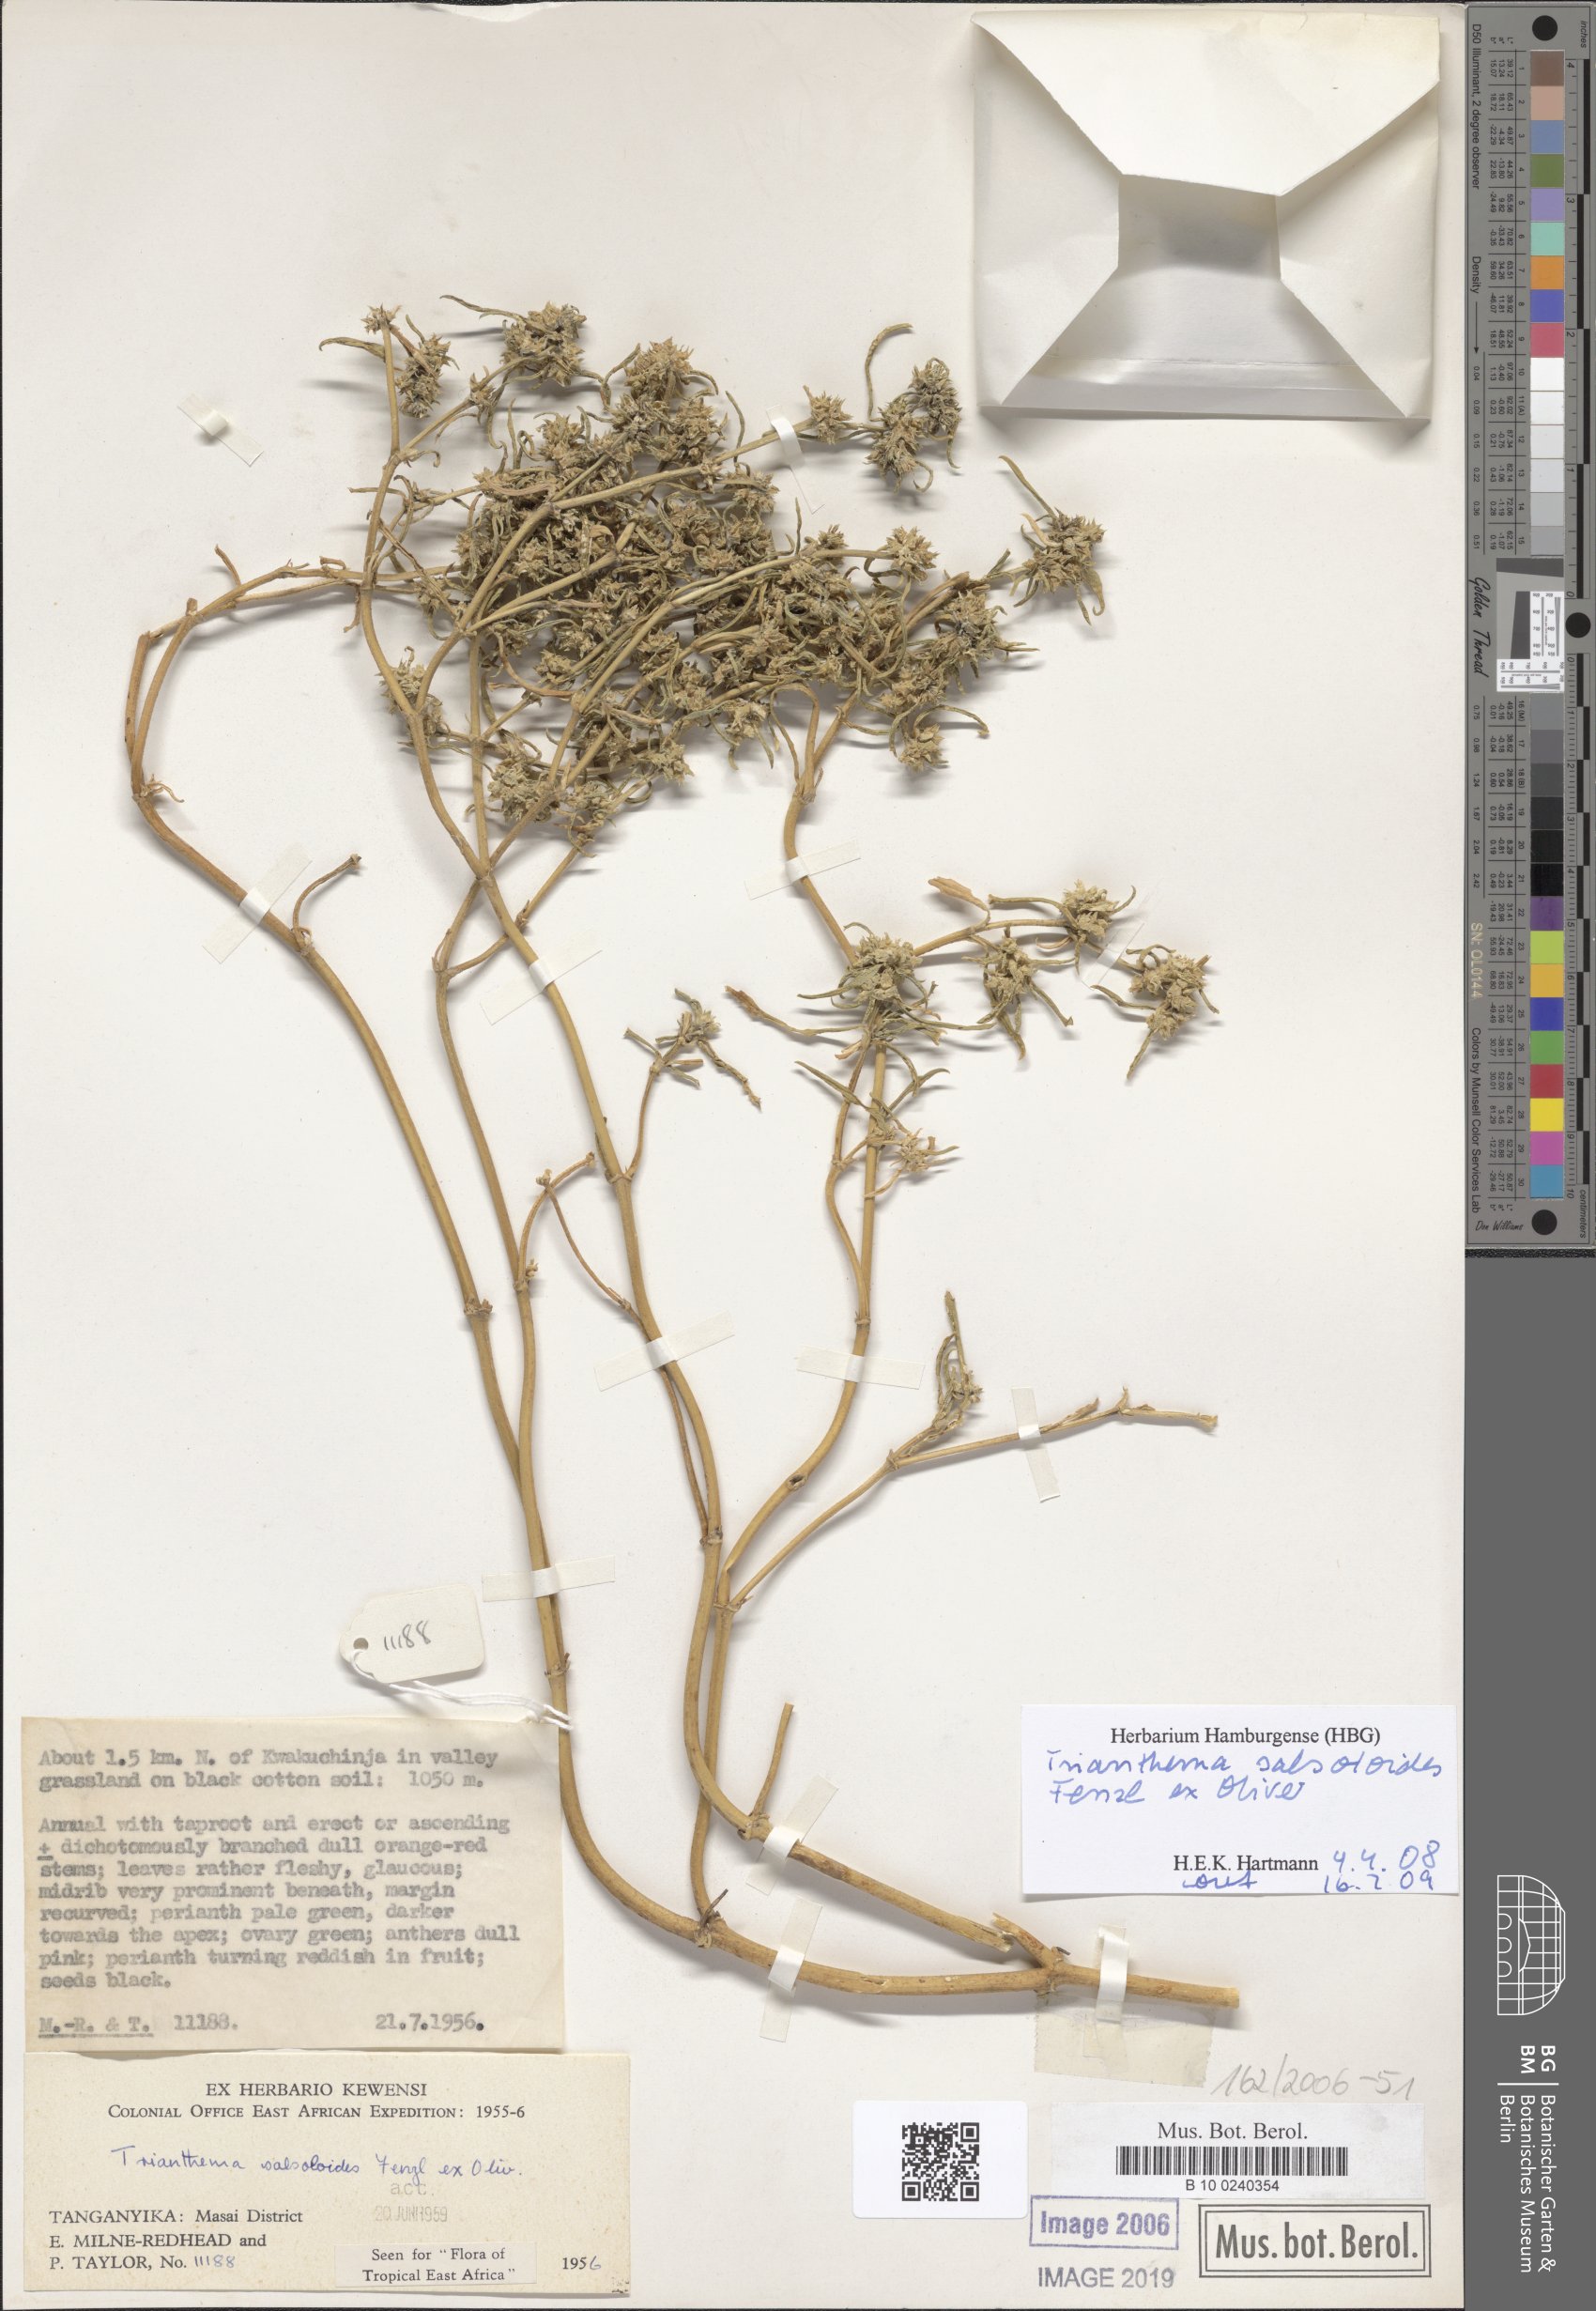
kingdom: Plantae
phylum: Tracheophyta
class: Magnoliopsida
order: Caryophyllales
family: Aizoaceae
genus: Trianthema
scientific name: Trianthema salsoloides
